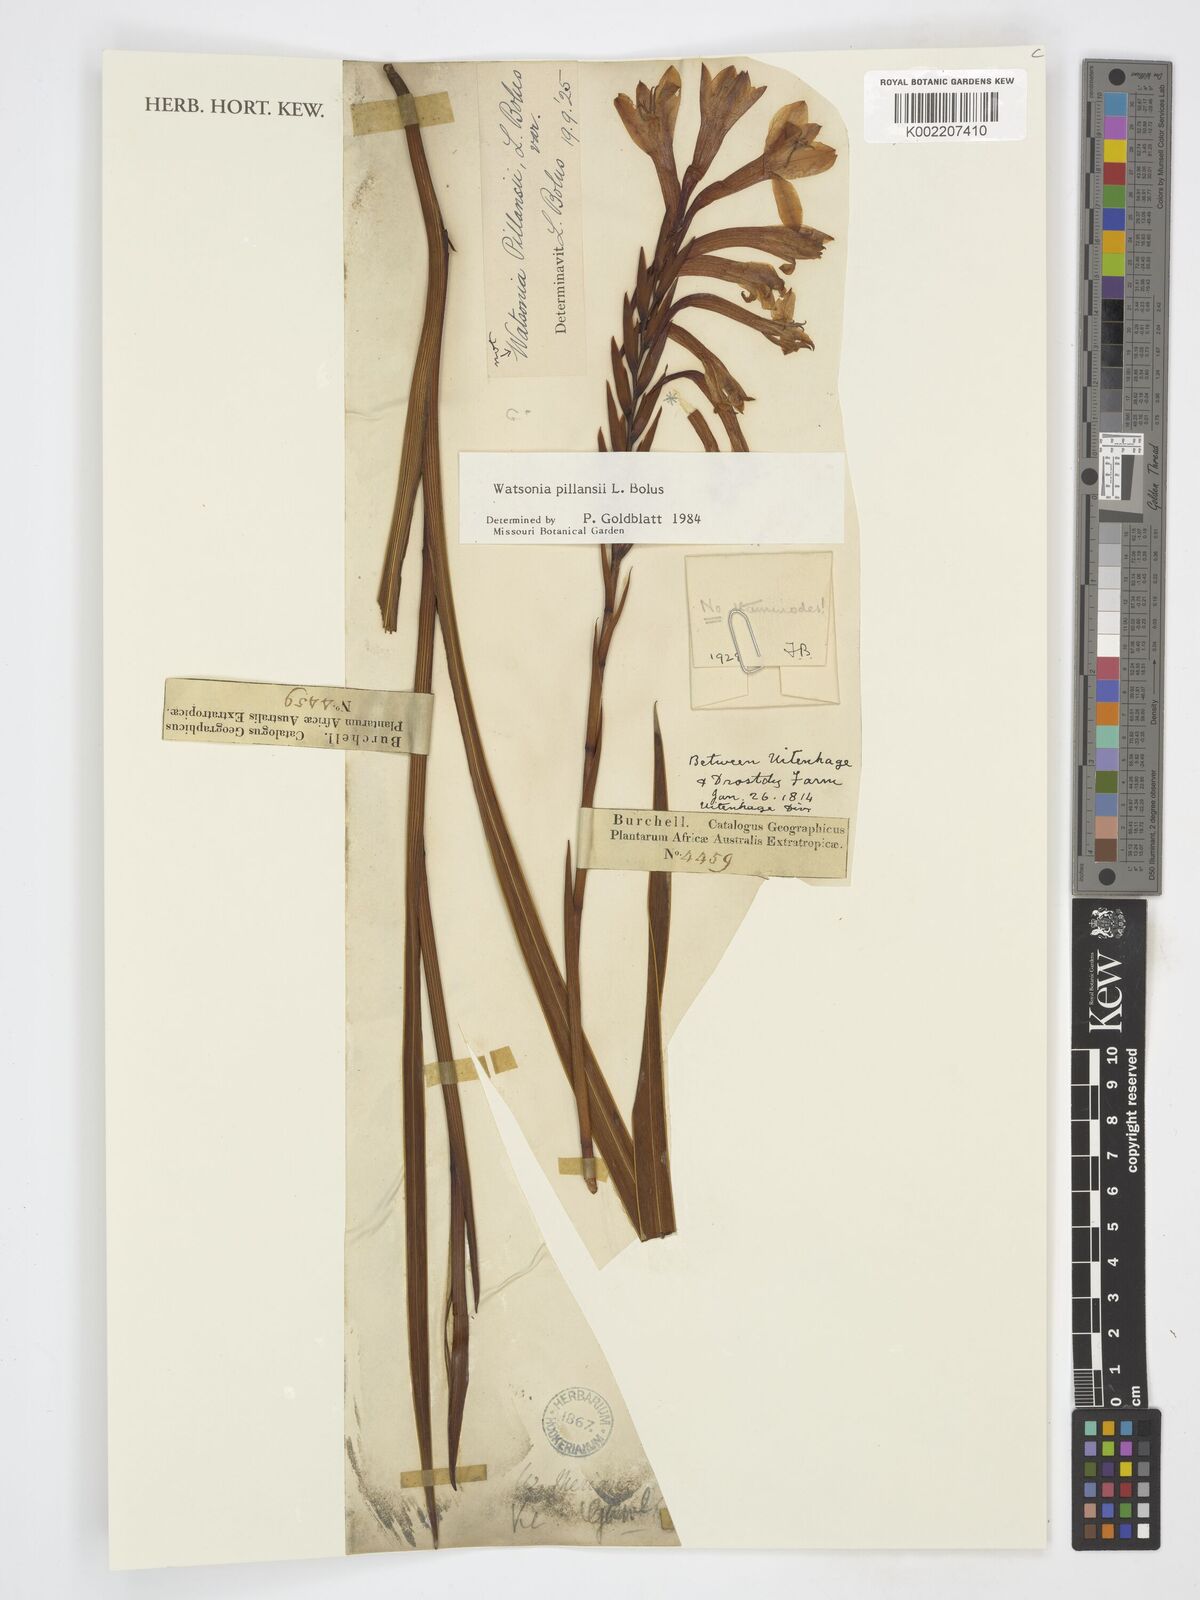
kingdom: Plantae
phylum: Tracheophyta
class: Liliopsida
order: Asparagales
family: Iridaceae
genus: Watsonia
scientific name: Watsonia pillansii
